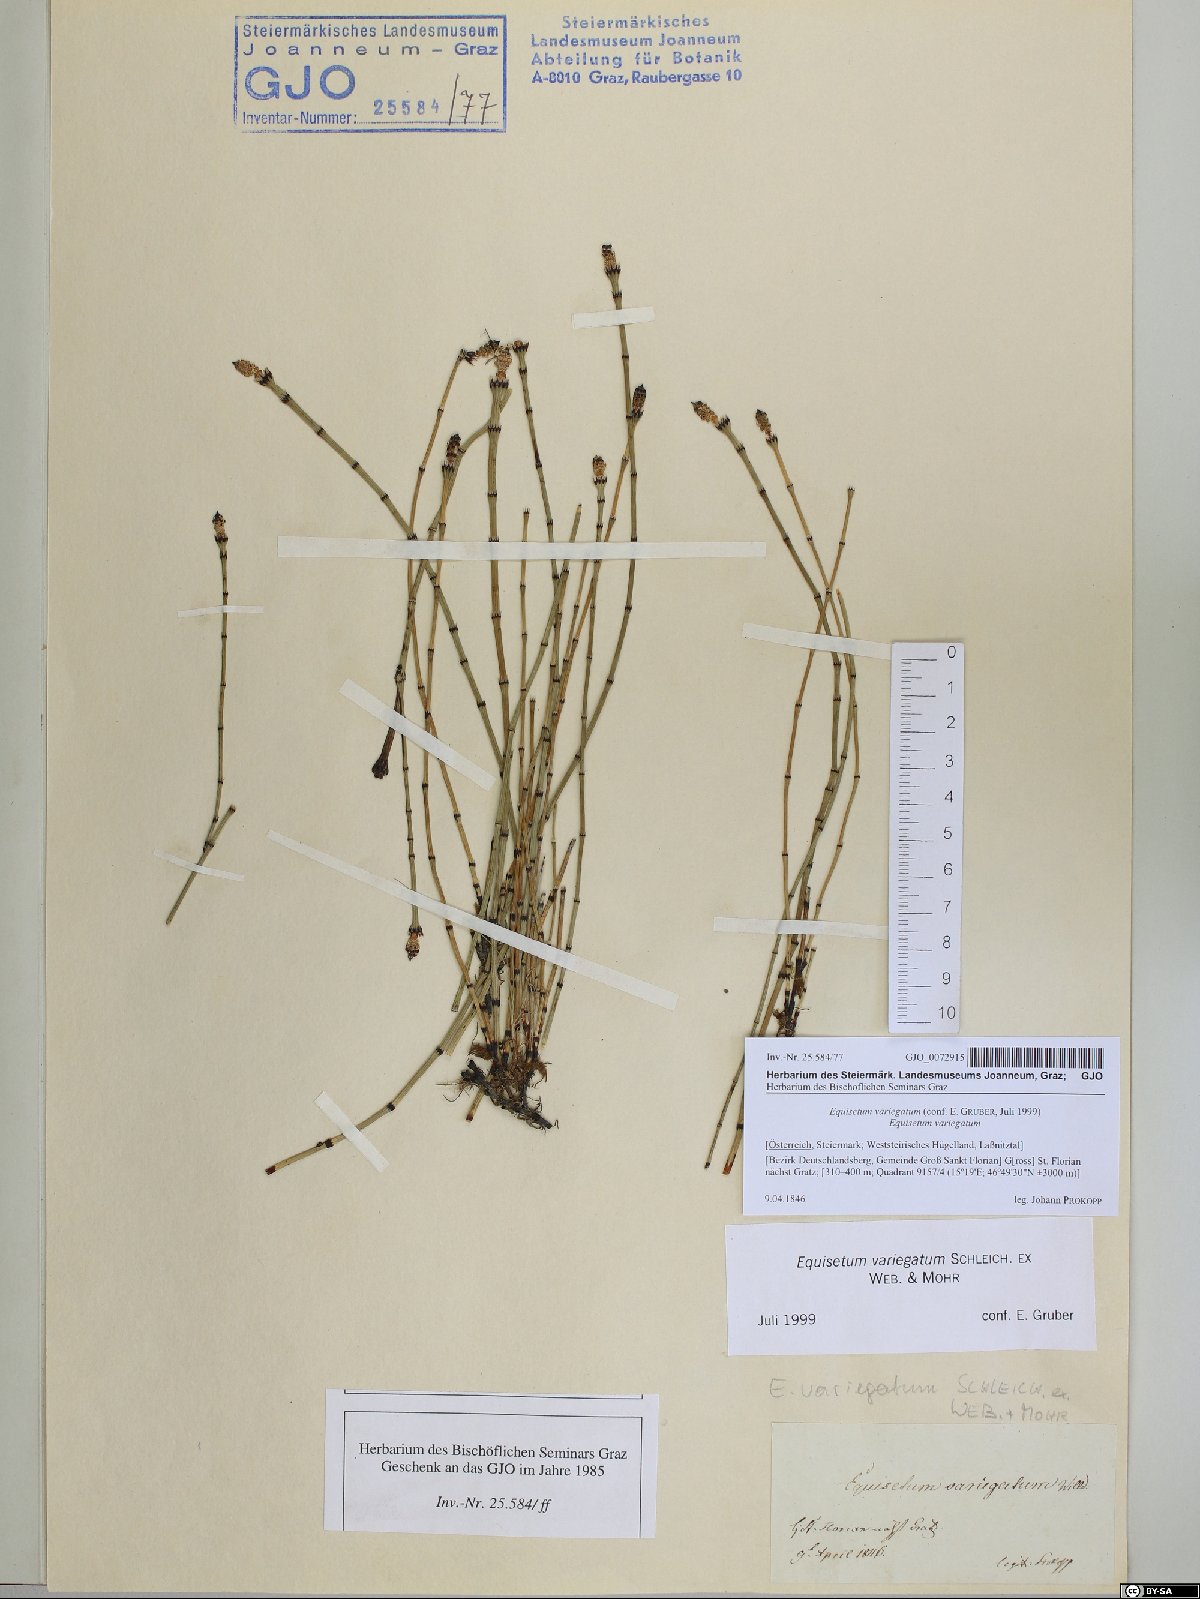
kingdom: Plantae
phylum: Tracheophyta
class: Polypodiopsida
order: Equisetales
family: Equisetaceae
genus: Equisetum
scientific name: Equisetum variegatum
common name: Variegated horsetail
